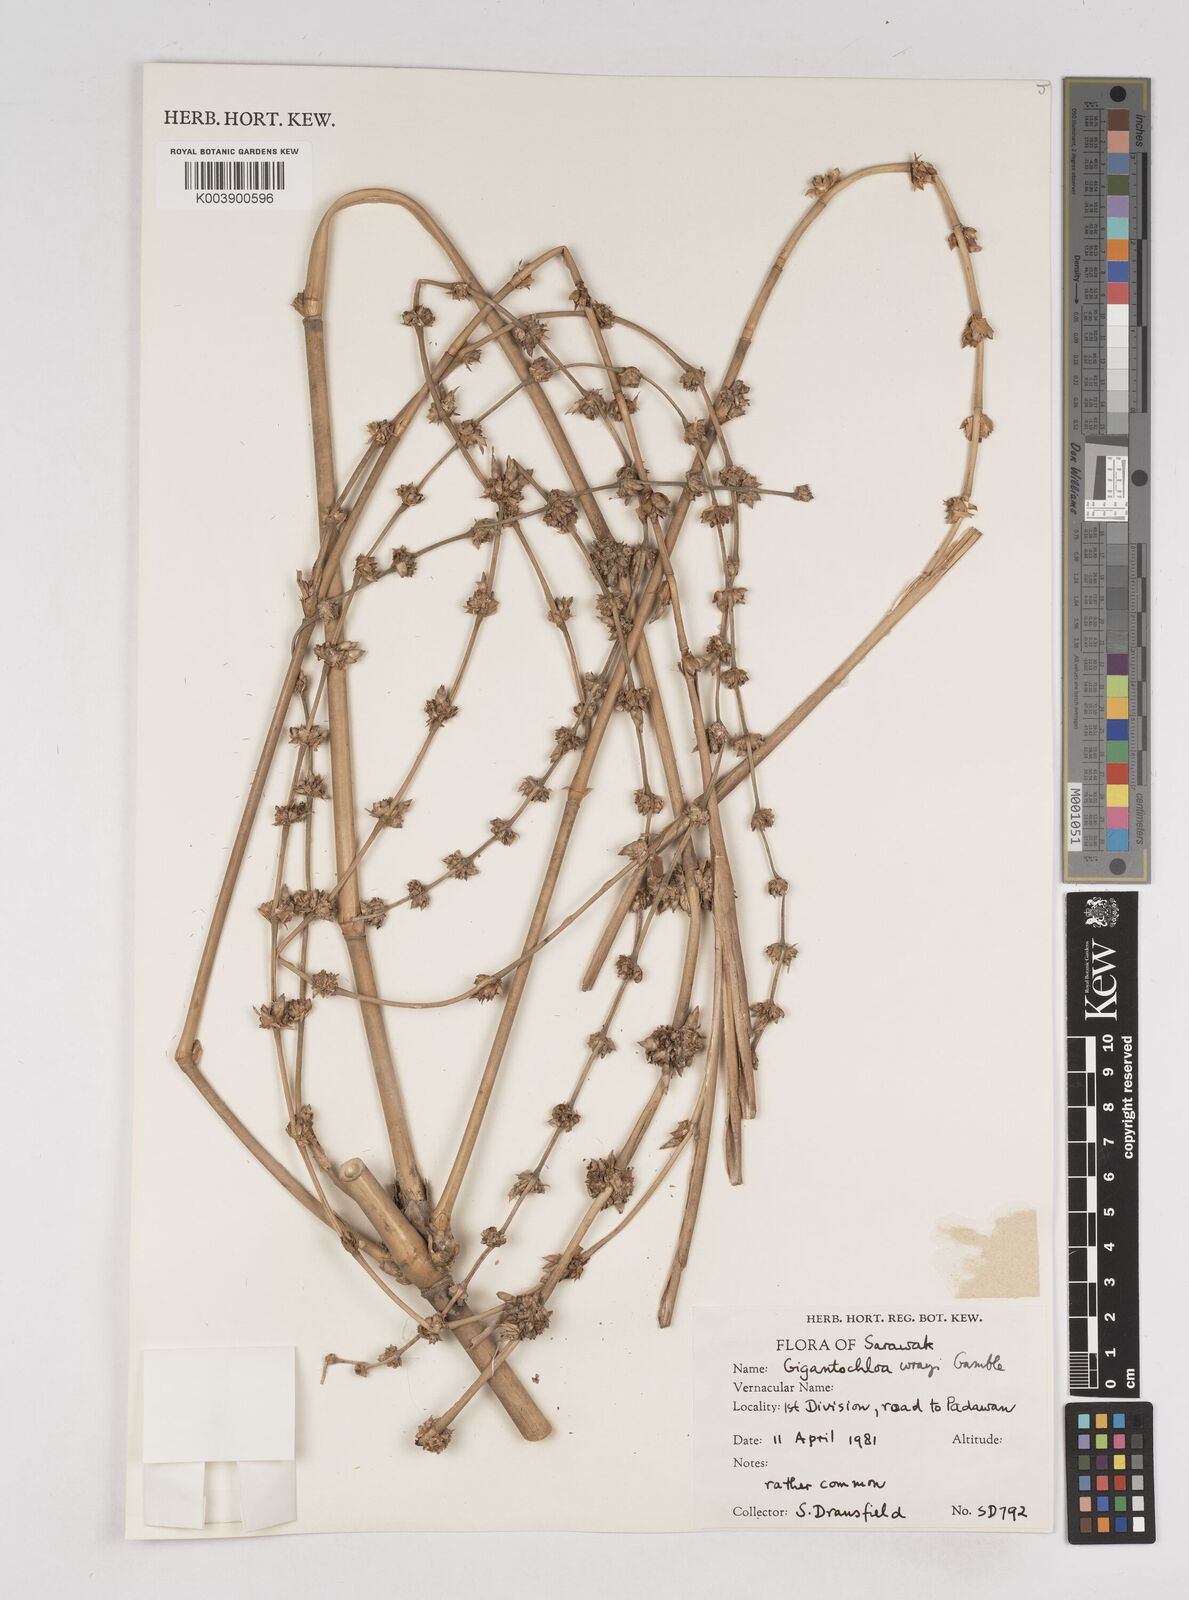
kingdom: Plantae
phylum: Tracheophyta
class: Liliopsida
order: Poales
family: Poaceae
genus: Gigantochloa
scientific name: Gigantochloa wrayi
